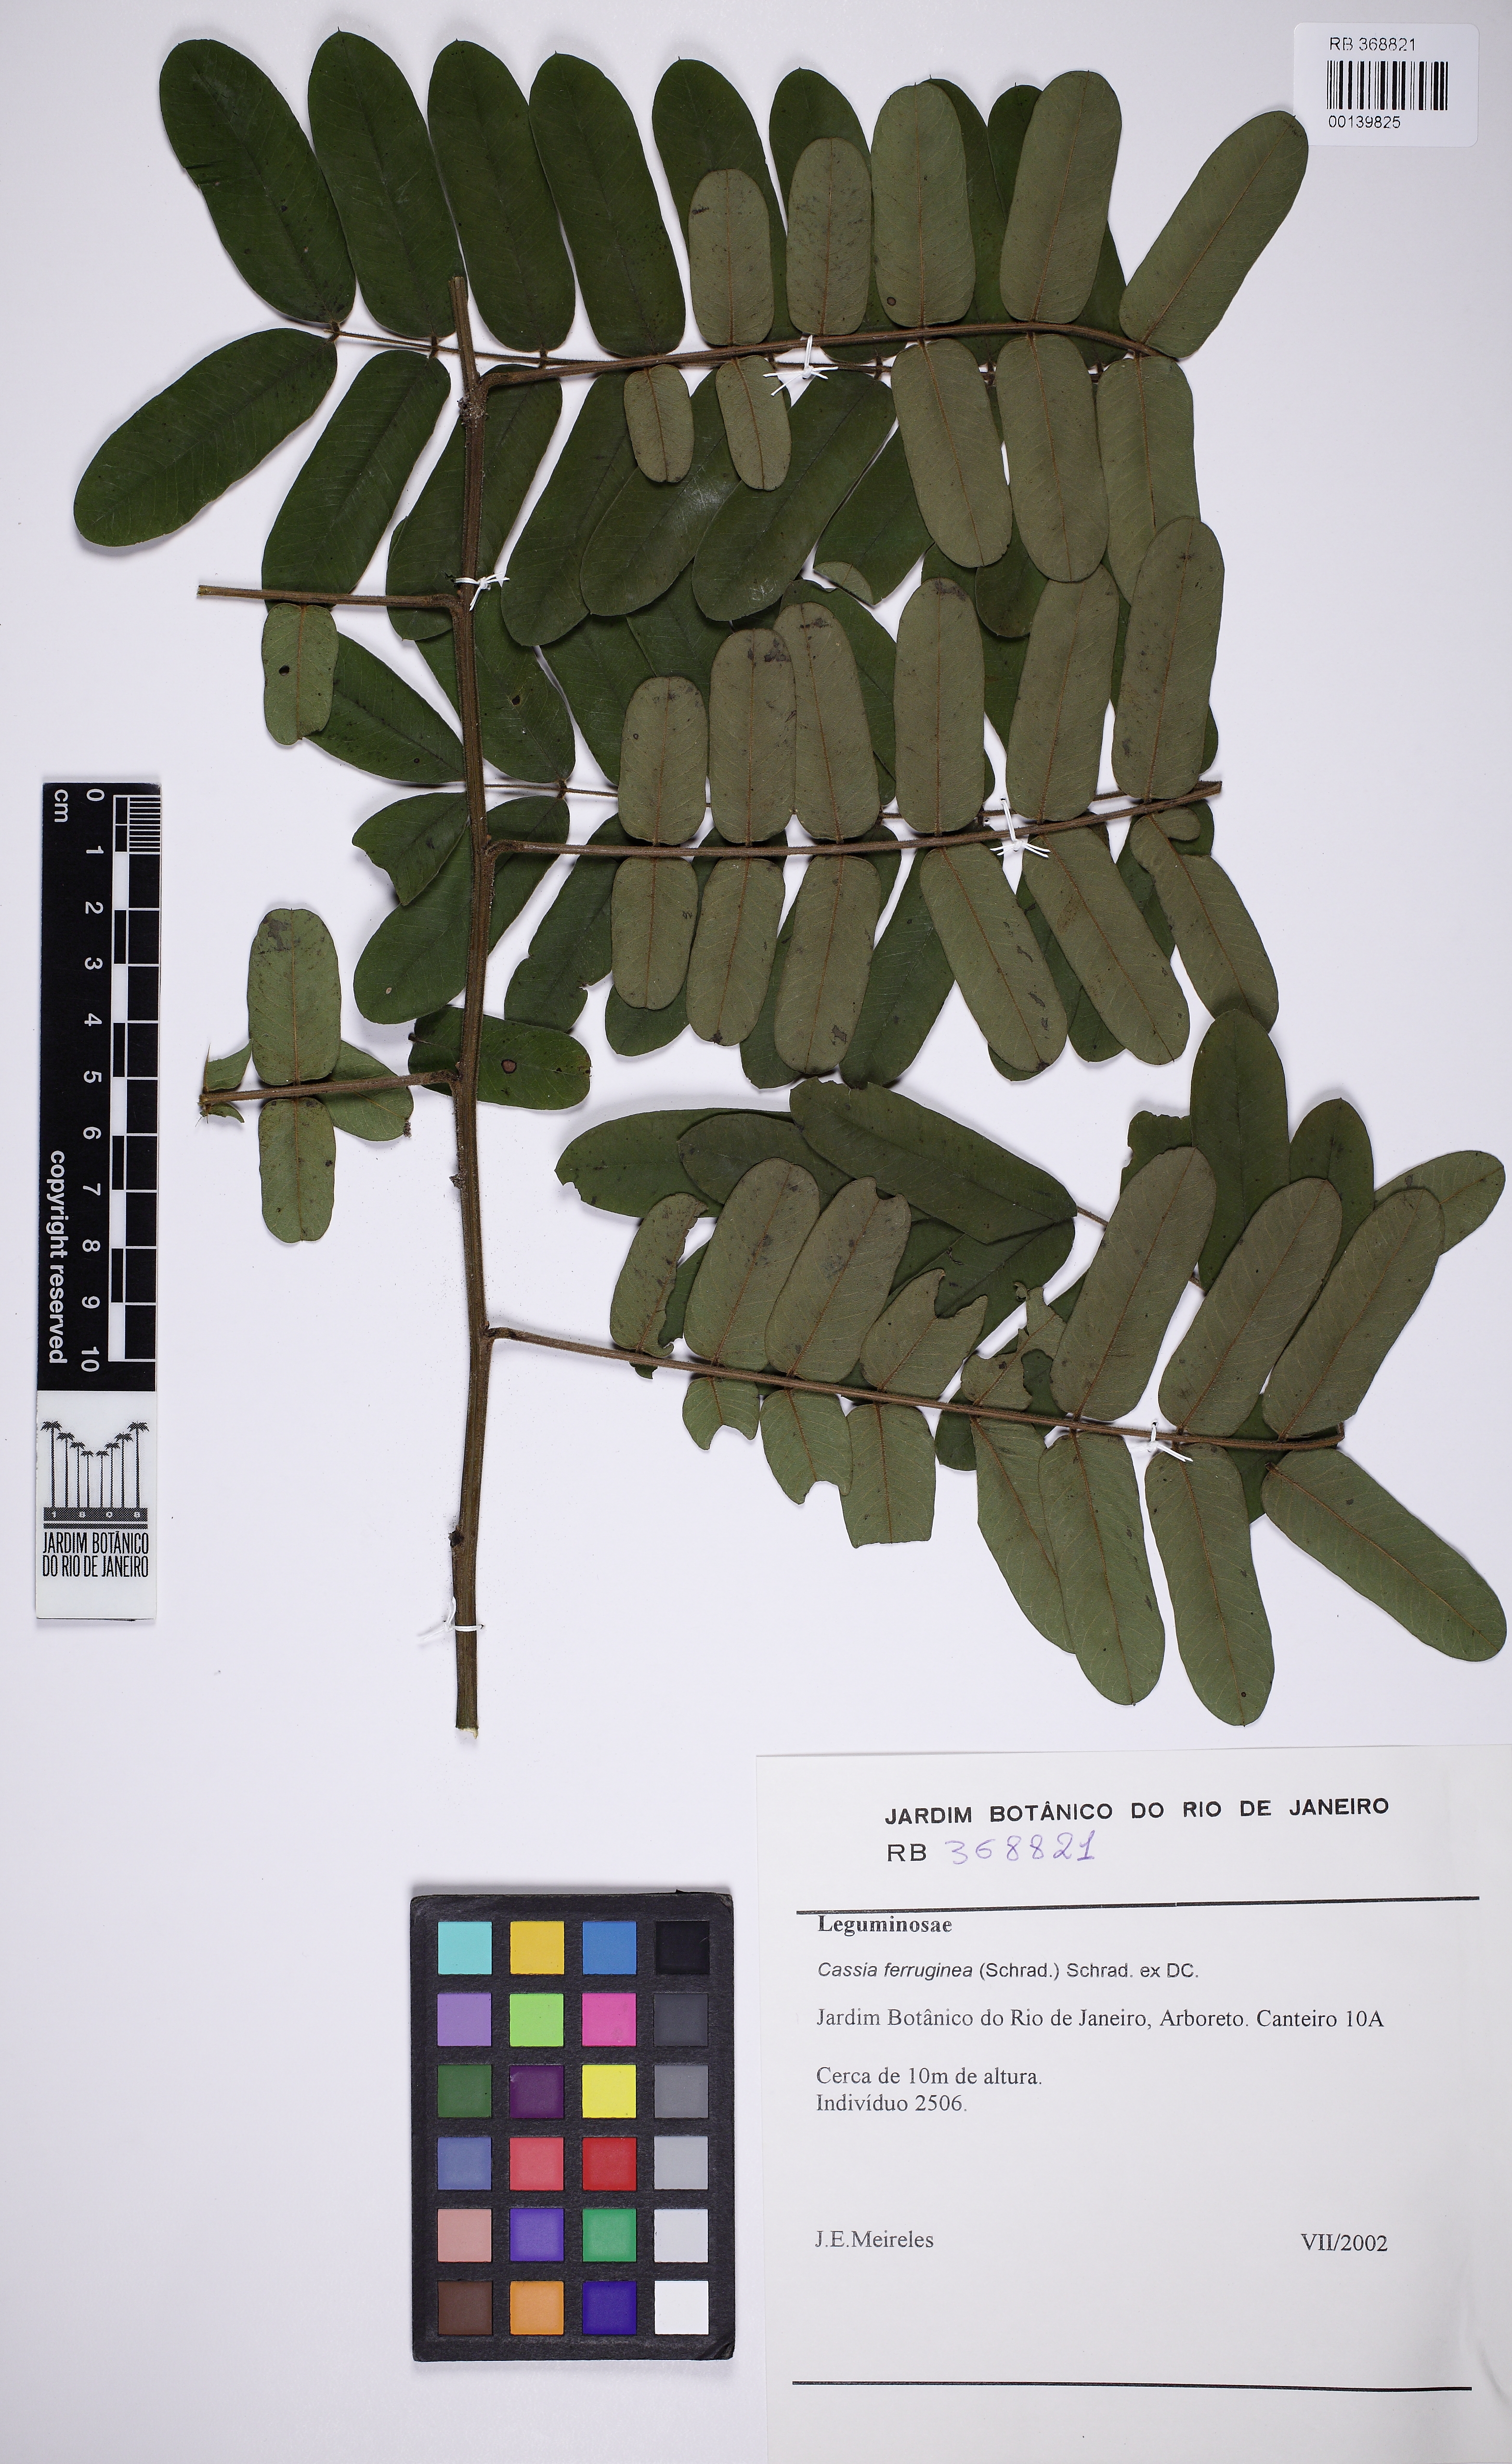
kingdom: Plantae
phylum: Tracheophyta
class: Magnoliopsida
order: Fabales
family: Fabaceae
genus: Cassia
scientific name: Cassia ferruginea
